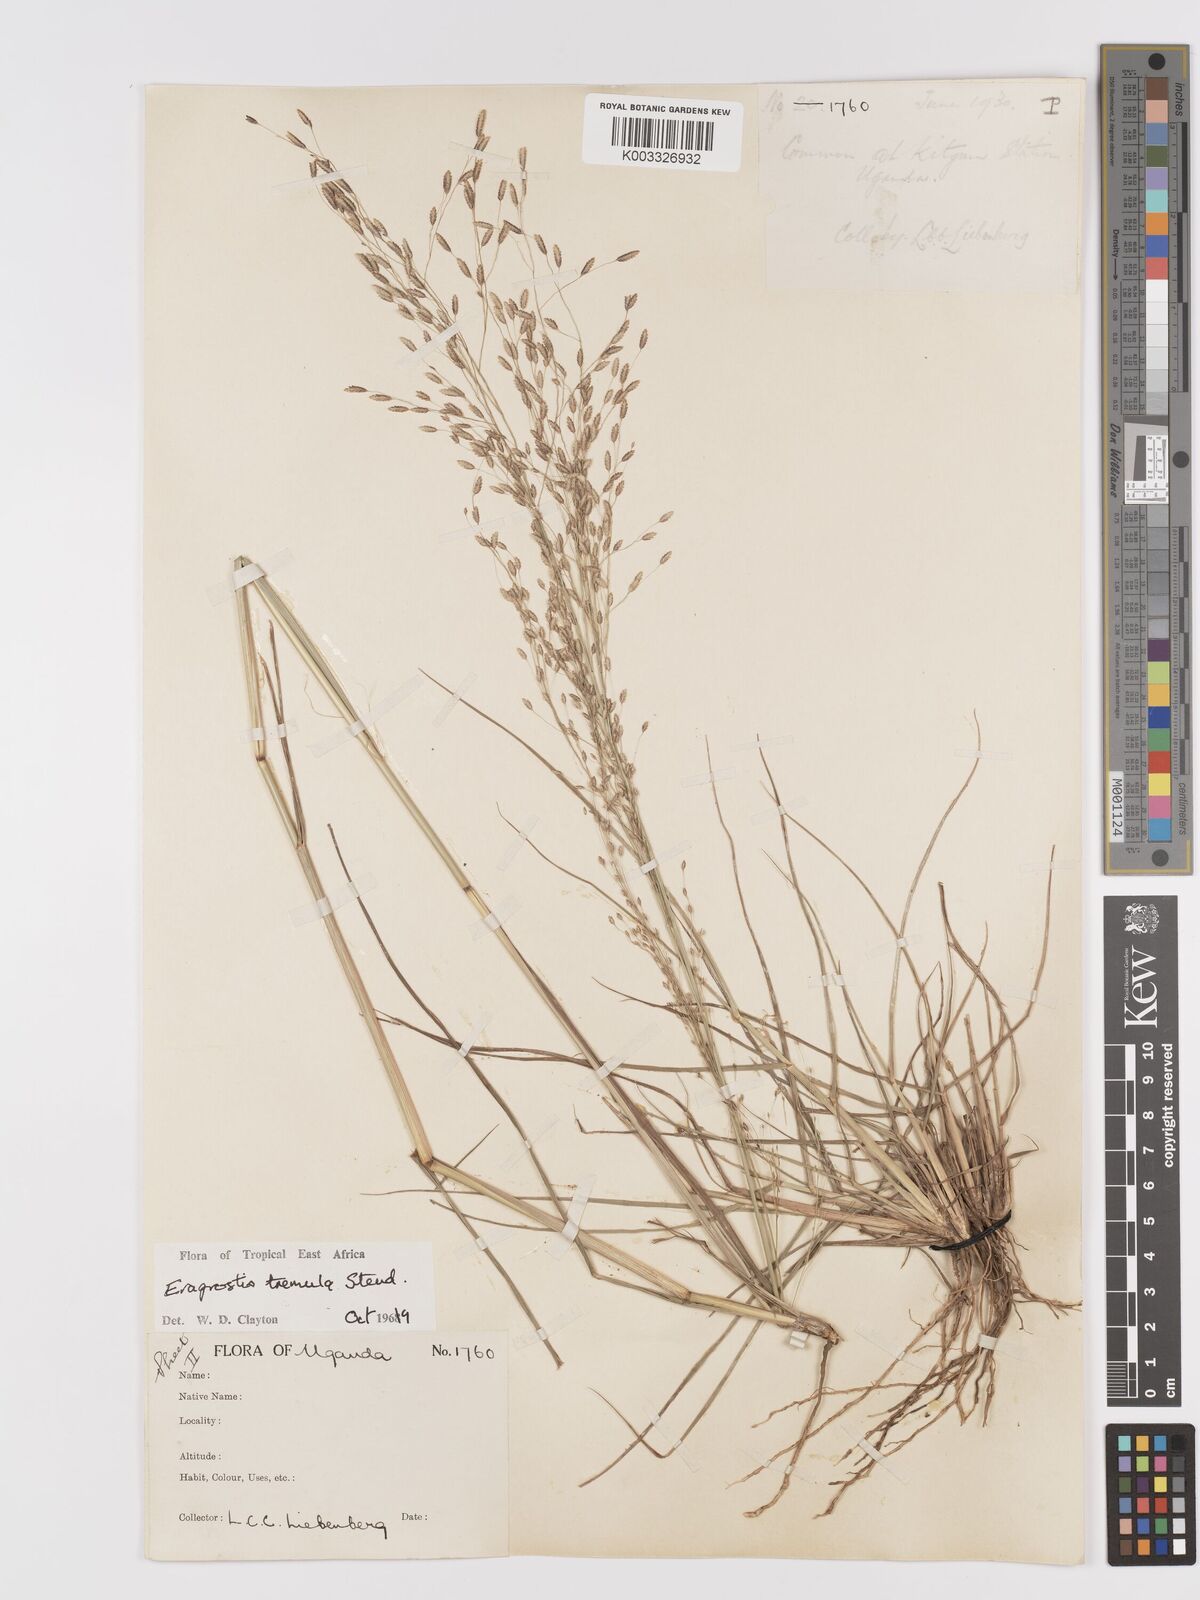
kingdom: Plantae
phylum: Tracheophyta
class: Liliopsida
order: Poales
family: Poaceae
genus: Eragrostis
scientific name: Eragrostis tremula
